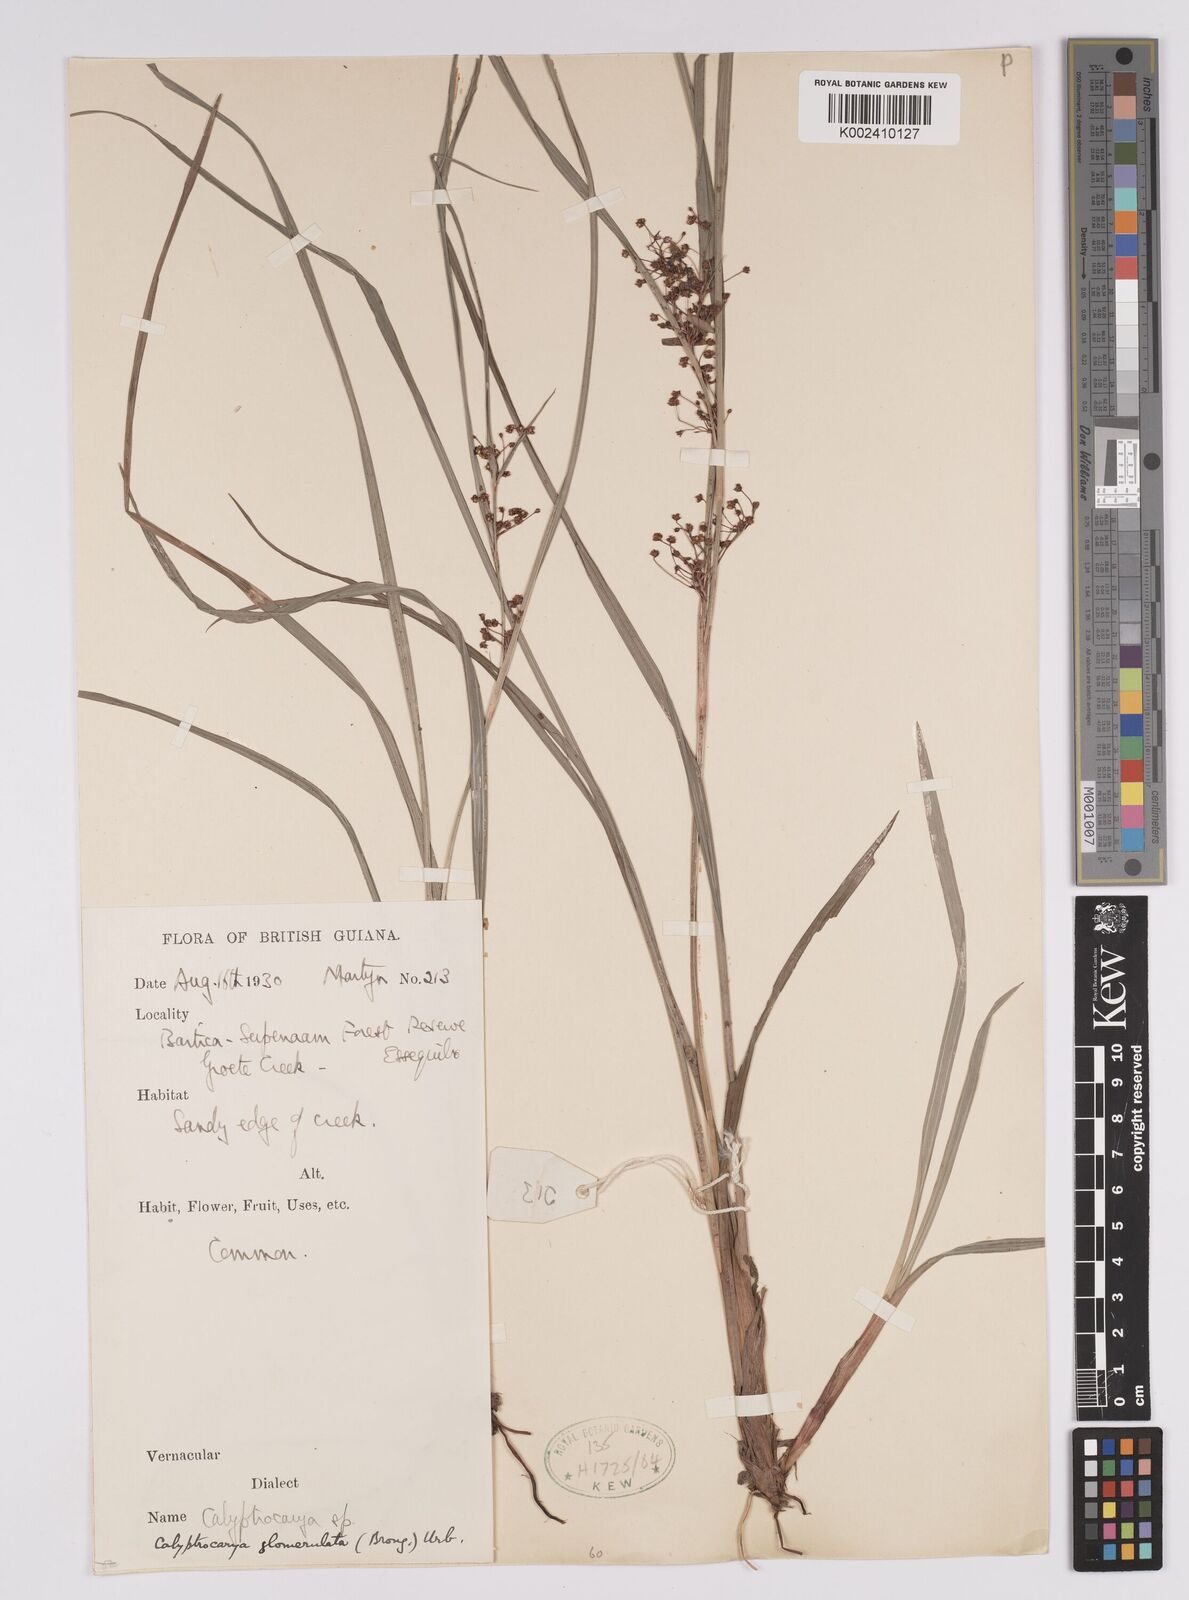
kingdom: Plantae
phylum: Tracheophyta
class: Liliopsida
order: Poales
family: Cyperaceae
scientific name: Cyperaceae
